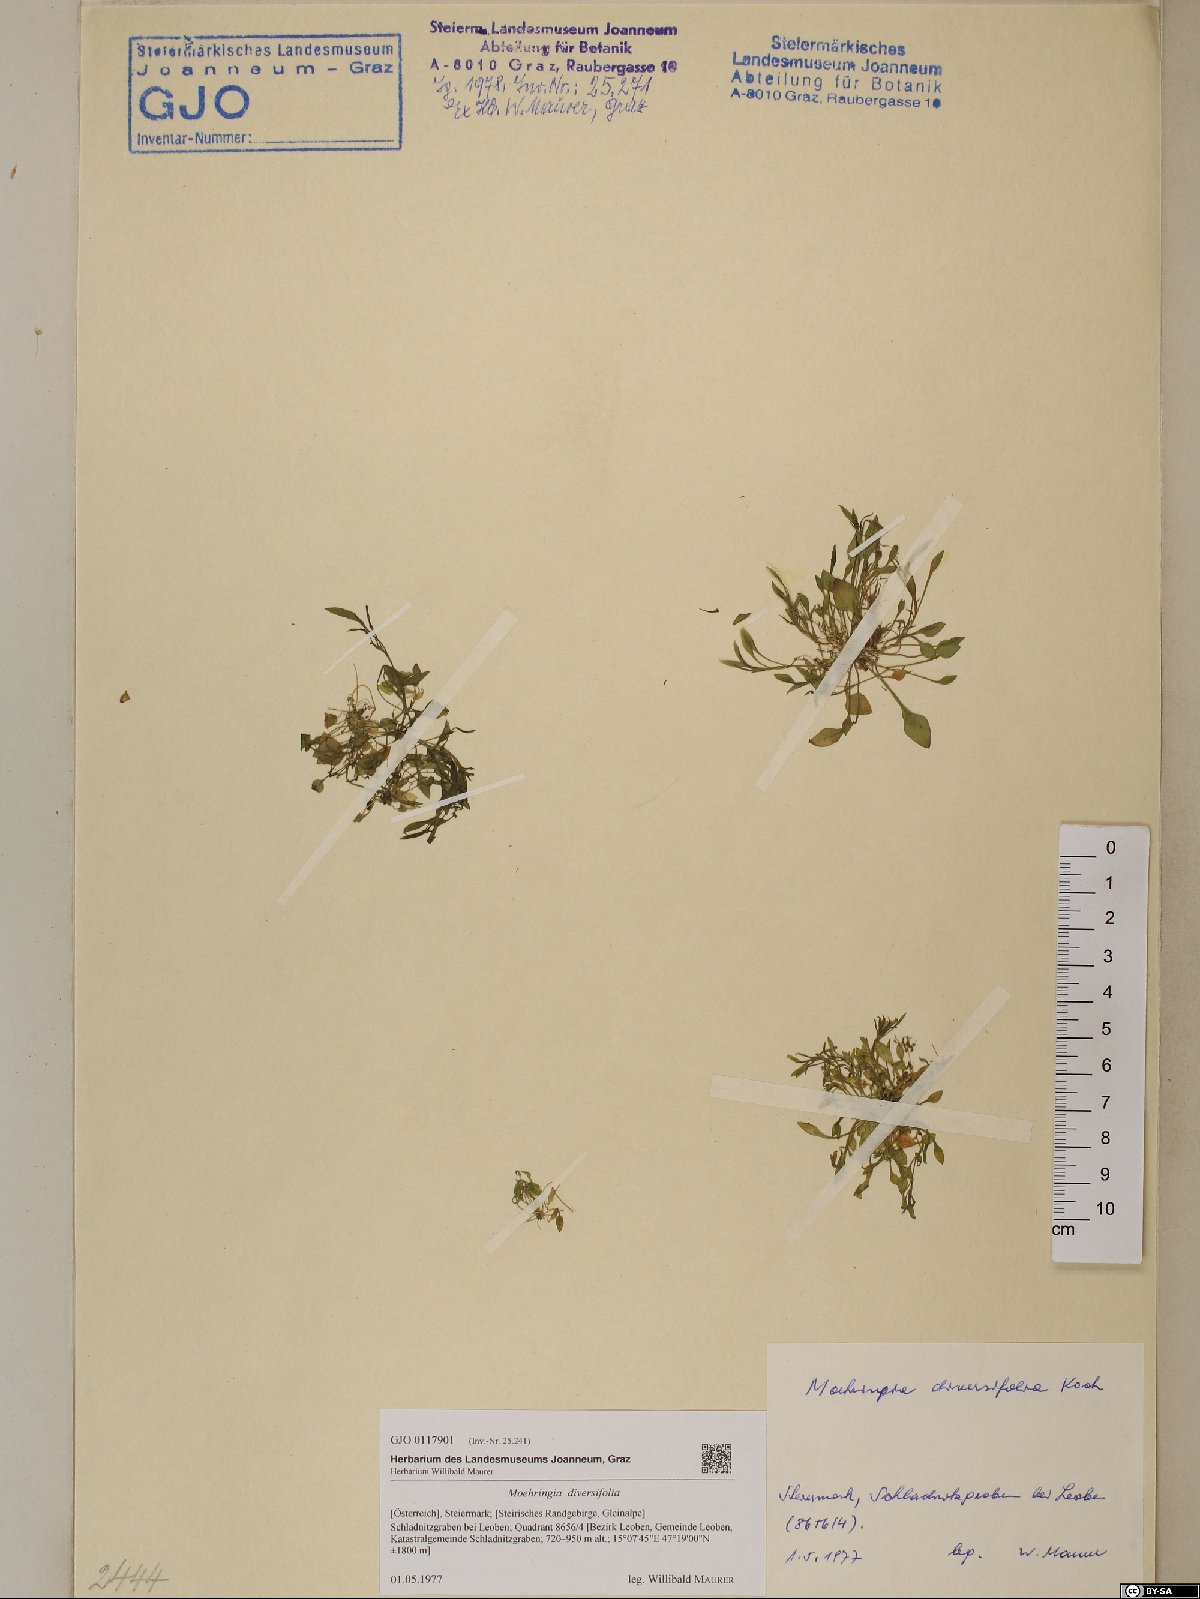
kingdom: Plantae
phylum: Tracheophyta
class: Magnoliopsida
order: Caryophyllales
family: Caryophyllaceae
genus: Moehringia
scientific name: Moehringia diversifolia
